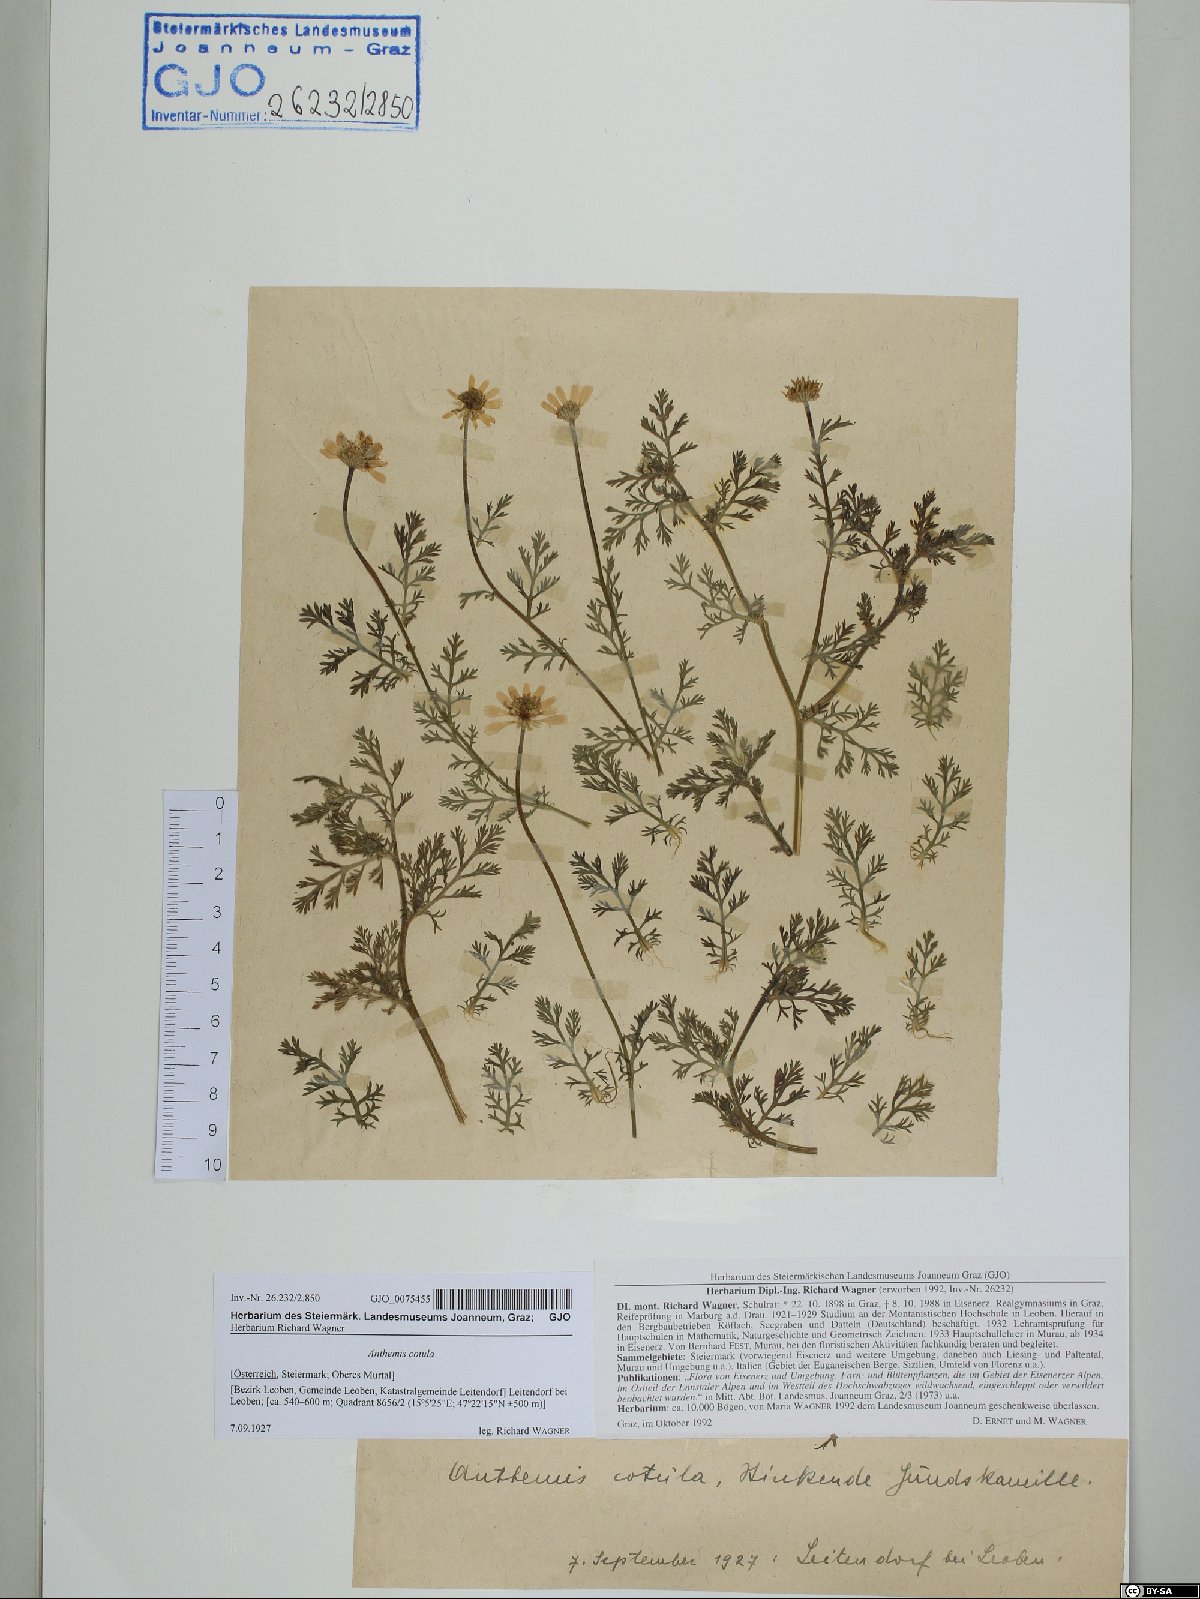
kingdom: Plantae
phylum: Tracheophyta
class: Magnoliopsida
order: Asterales
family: Asteraceae
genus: Anthemis
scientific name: Anthemis cotula
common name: Stinking chamomile
